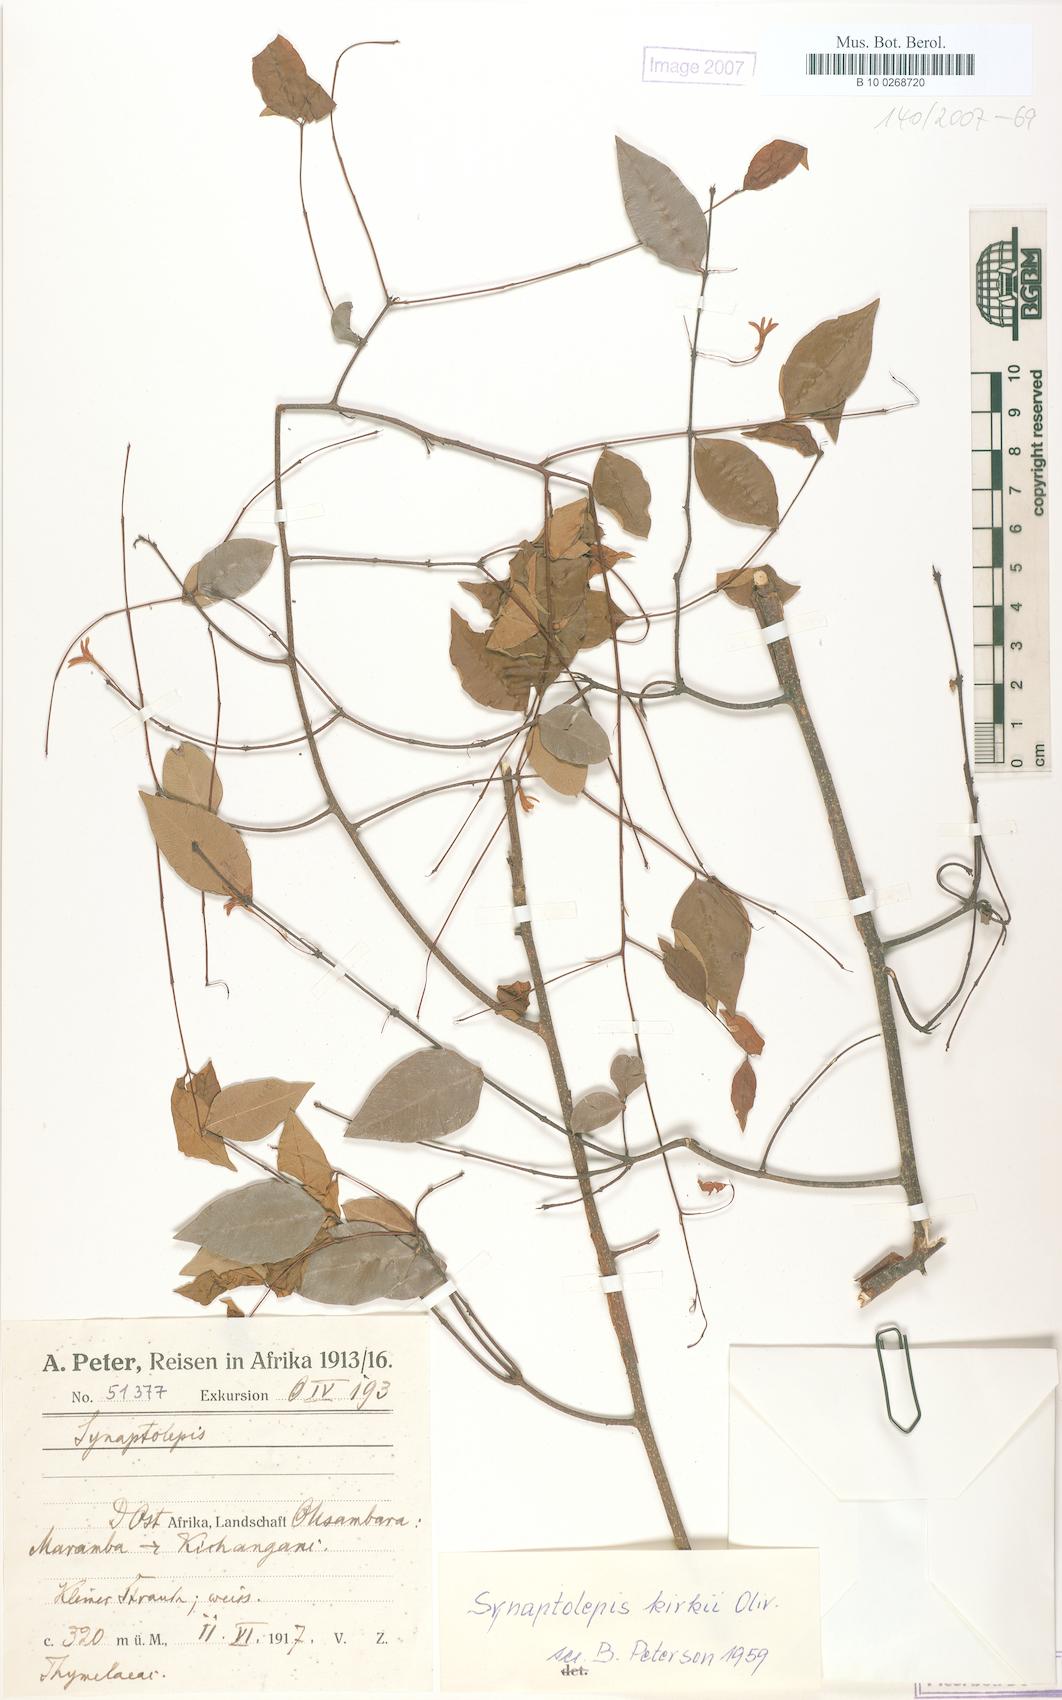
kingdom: Plantae
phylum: Tracheophyta
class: Magnoliopsida
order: Malvales
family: Thymelaeaceae
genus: Synaptolepis
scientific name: Synaptolepis kirkii
